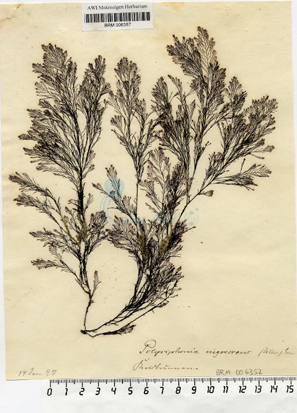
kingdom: Plantae
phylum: Rhodophyta
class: Florideophyceae
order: Ceramiales
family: Rhodomelaceae
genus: Vertebrata
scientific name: Vertebrata spec
